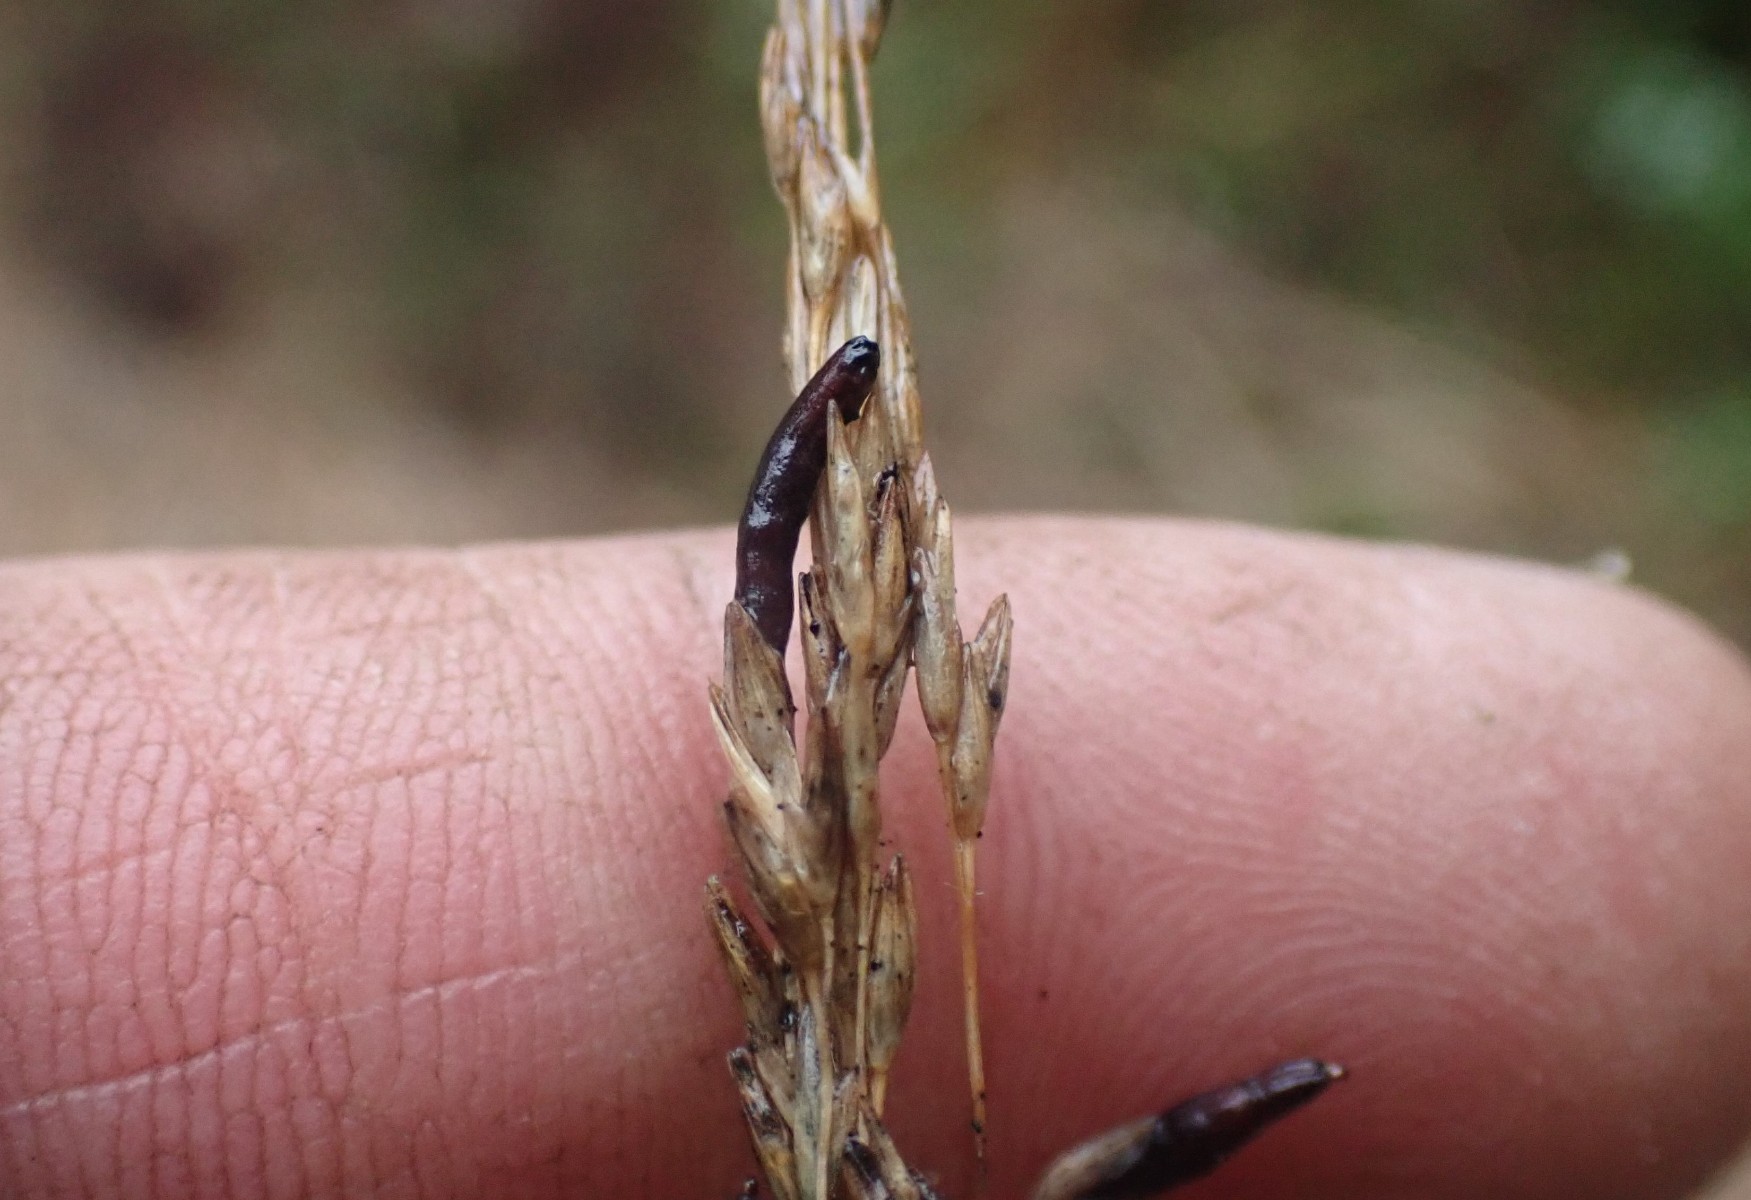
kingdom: Fungi
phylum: Ascomycota
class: Sordariomycetes
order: Hypocreales
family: Clavicipitaceae
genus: Claviceps
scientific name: Claviceps purpurea
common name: almindelig meldrøjer
